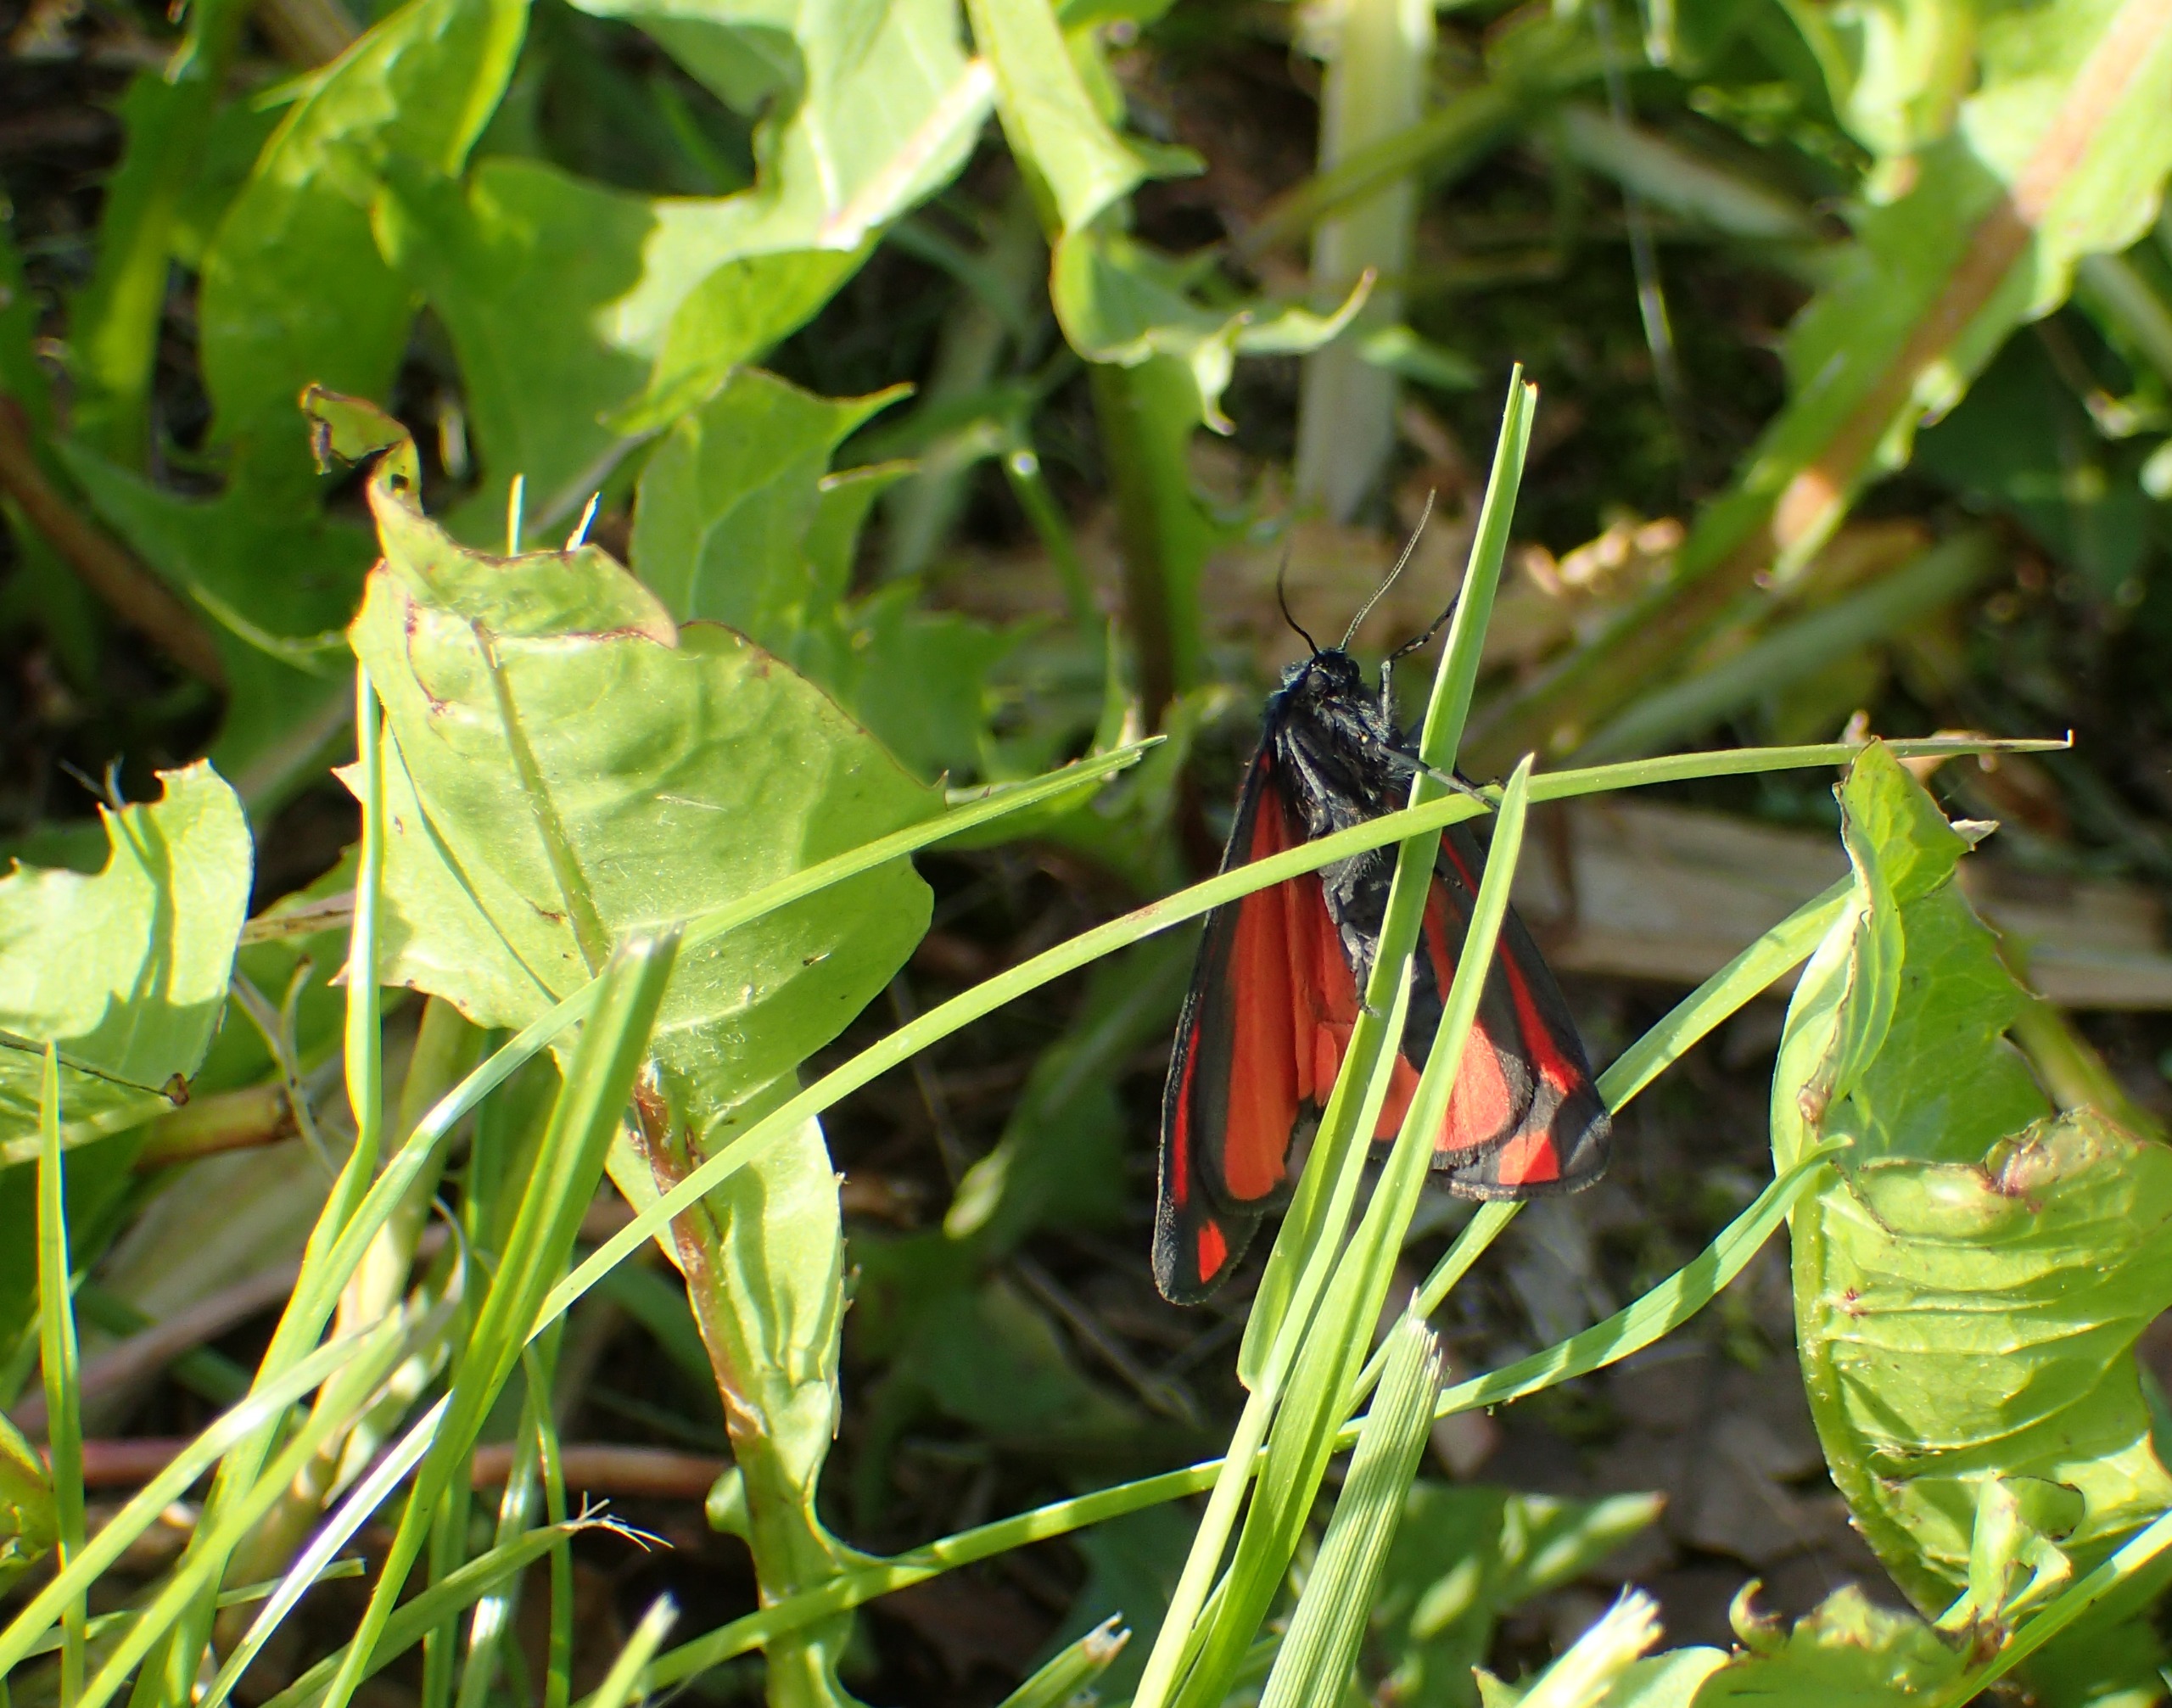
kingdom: Animalia
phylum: Arthropoda
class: Insecta
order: Lepidoptera
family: Erebidae
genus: Tyria
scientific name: Tyria jacobaeae
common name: Blodplet
